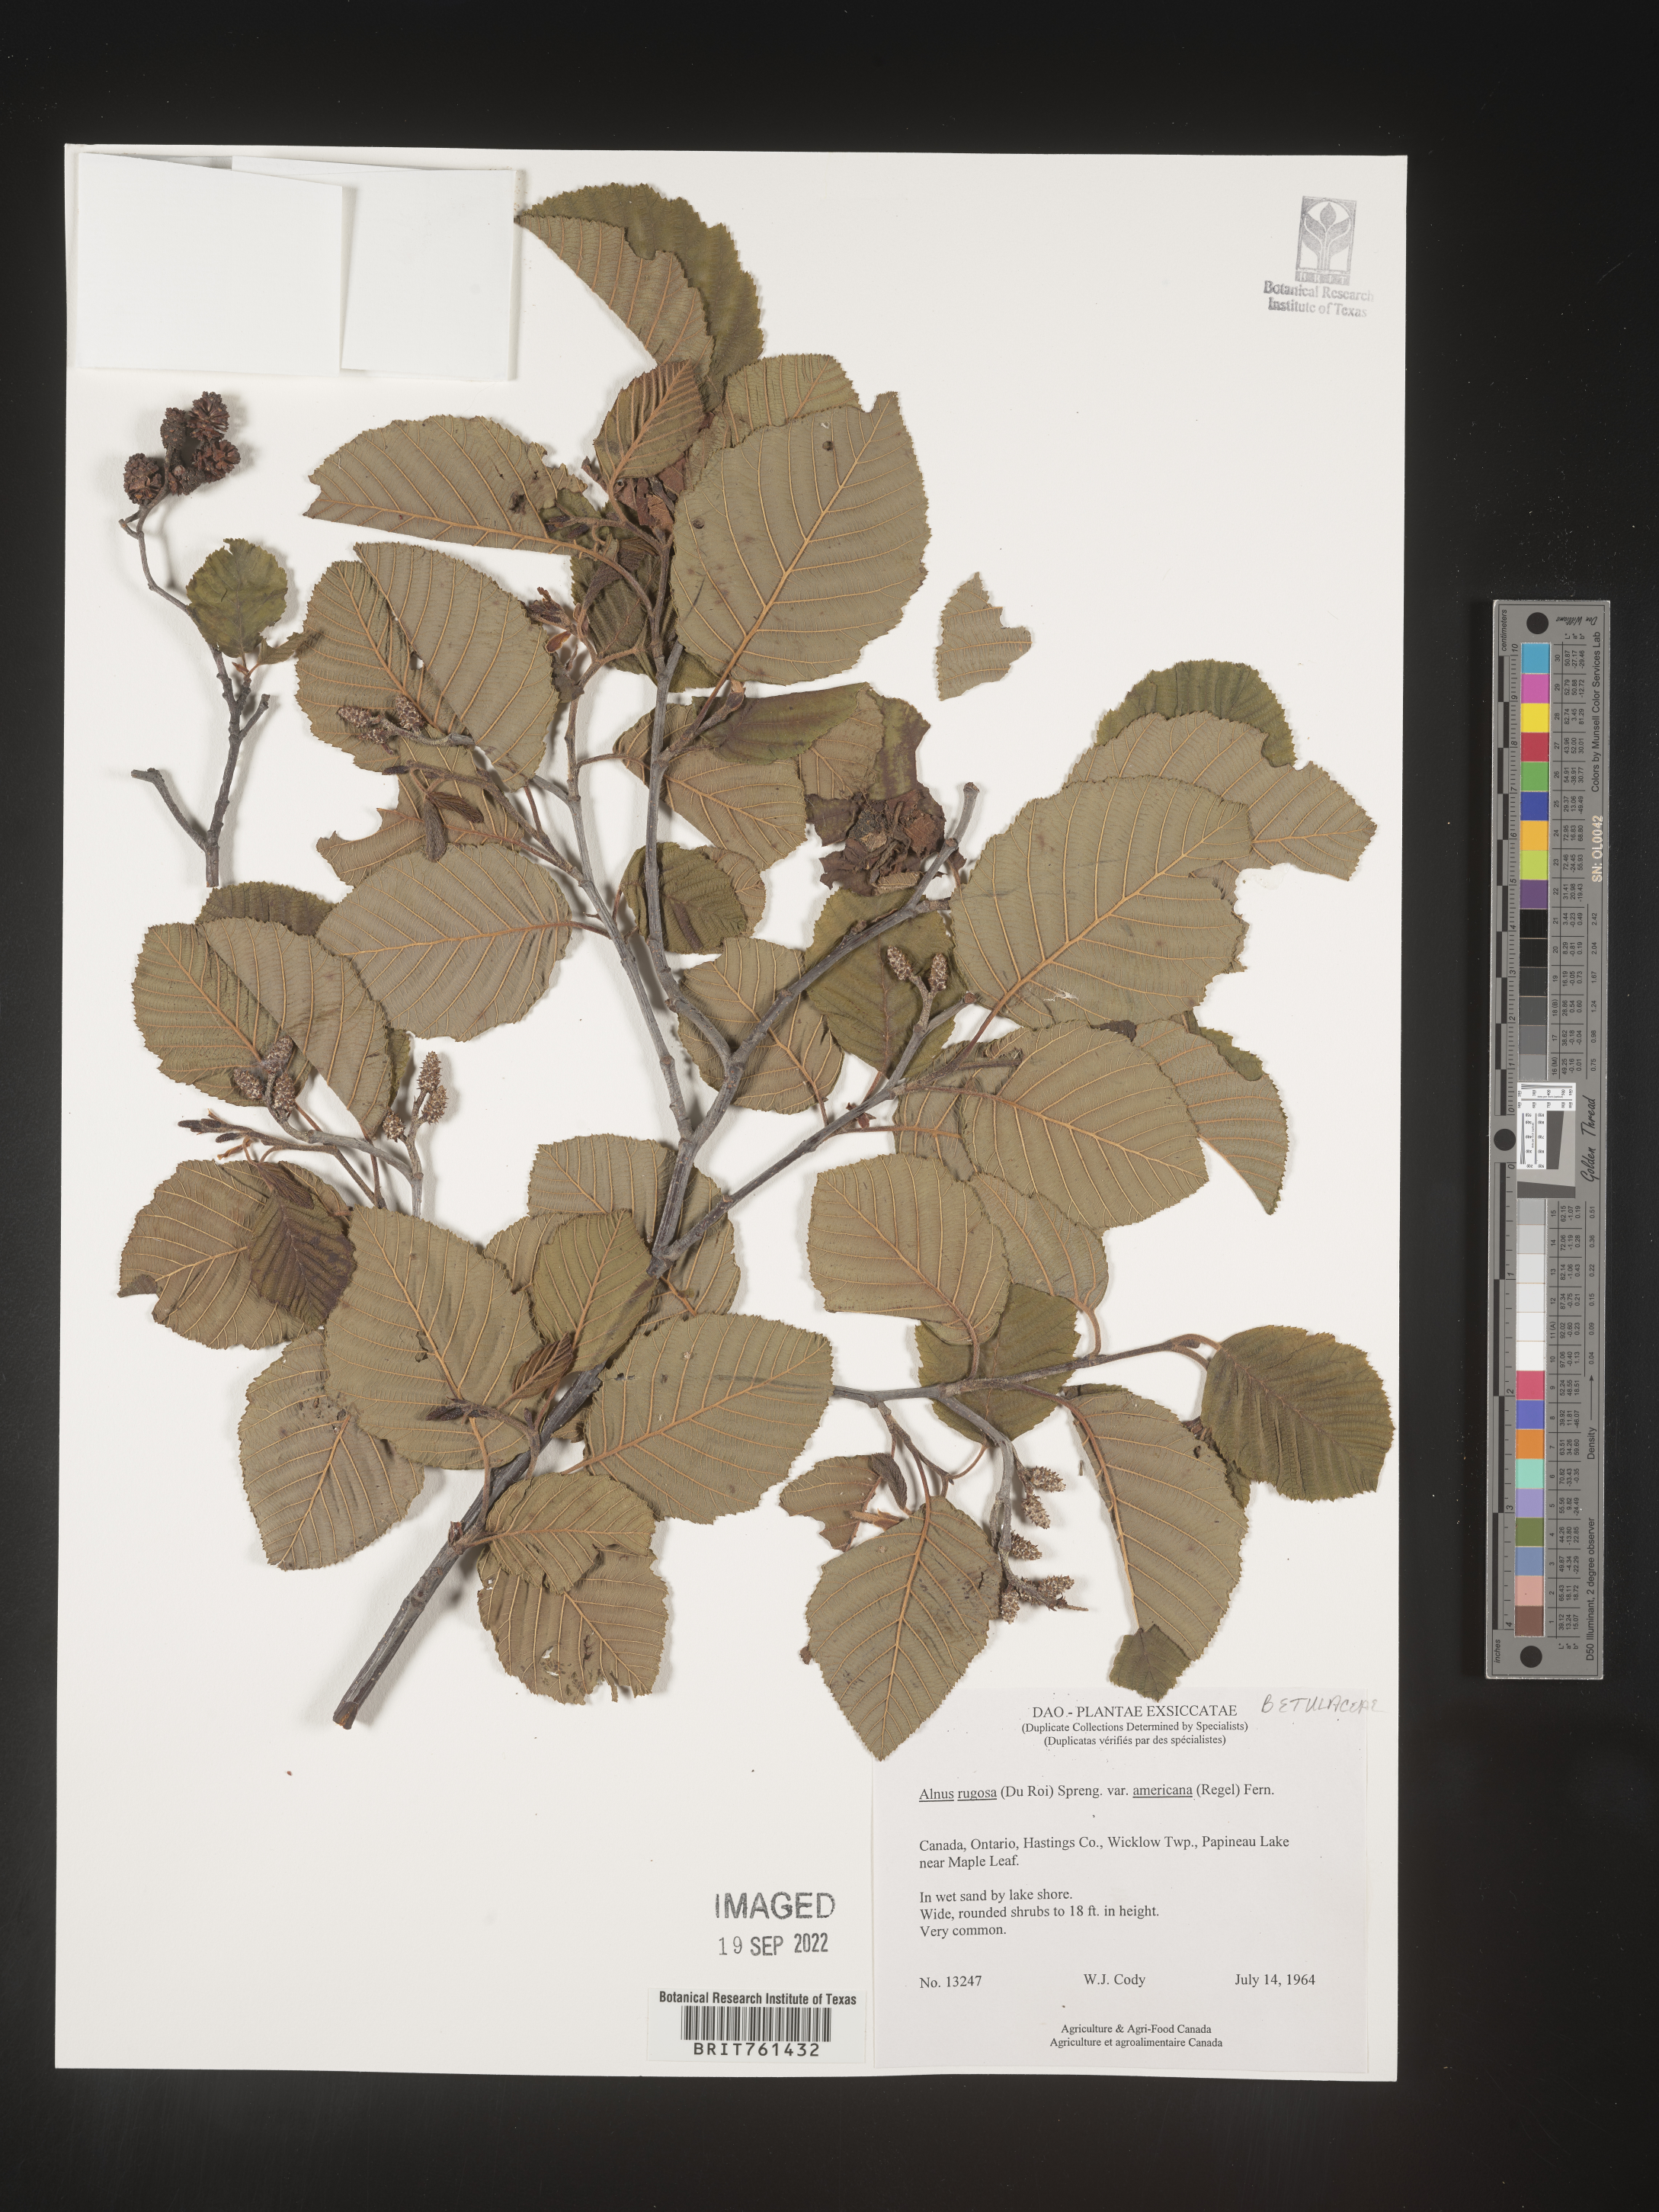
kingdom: Plantae
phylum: Tracheophyta
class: Magnoliopsida
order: Fagales
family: Betulaceae
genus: Alnus
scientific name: Alnus incana
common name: Grey alder
